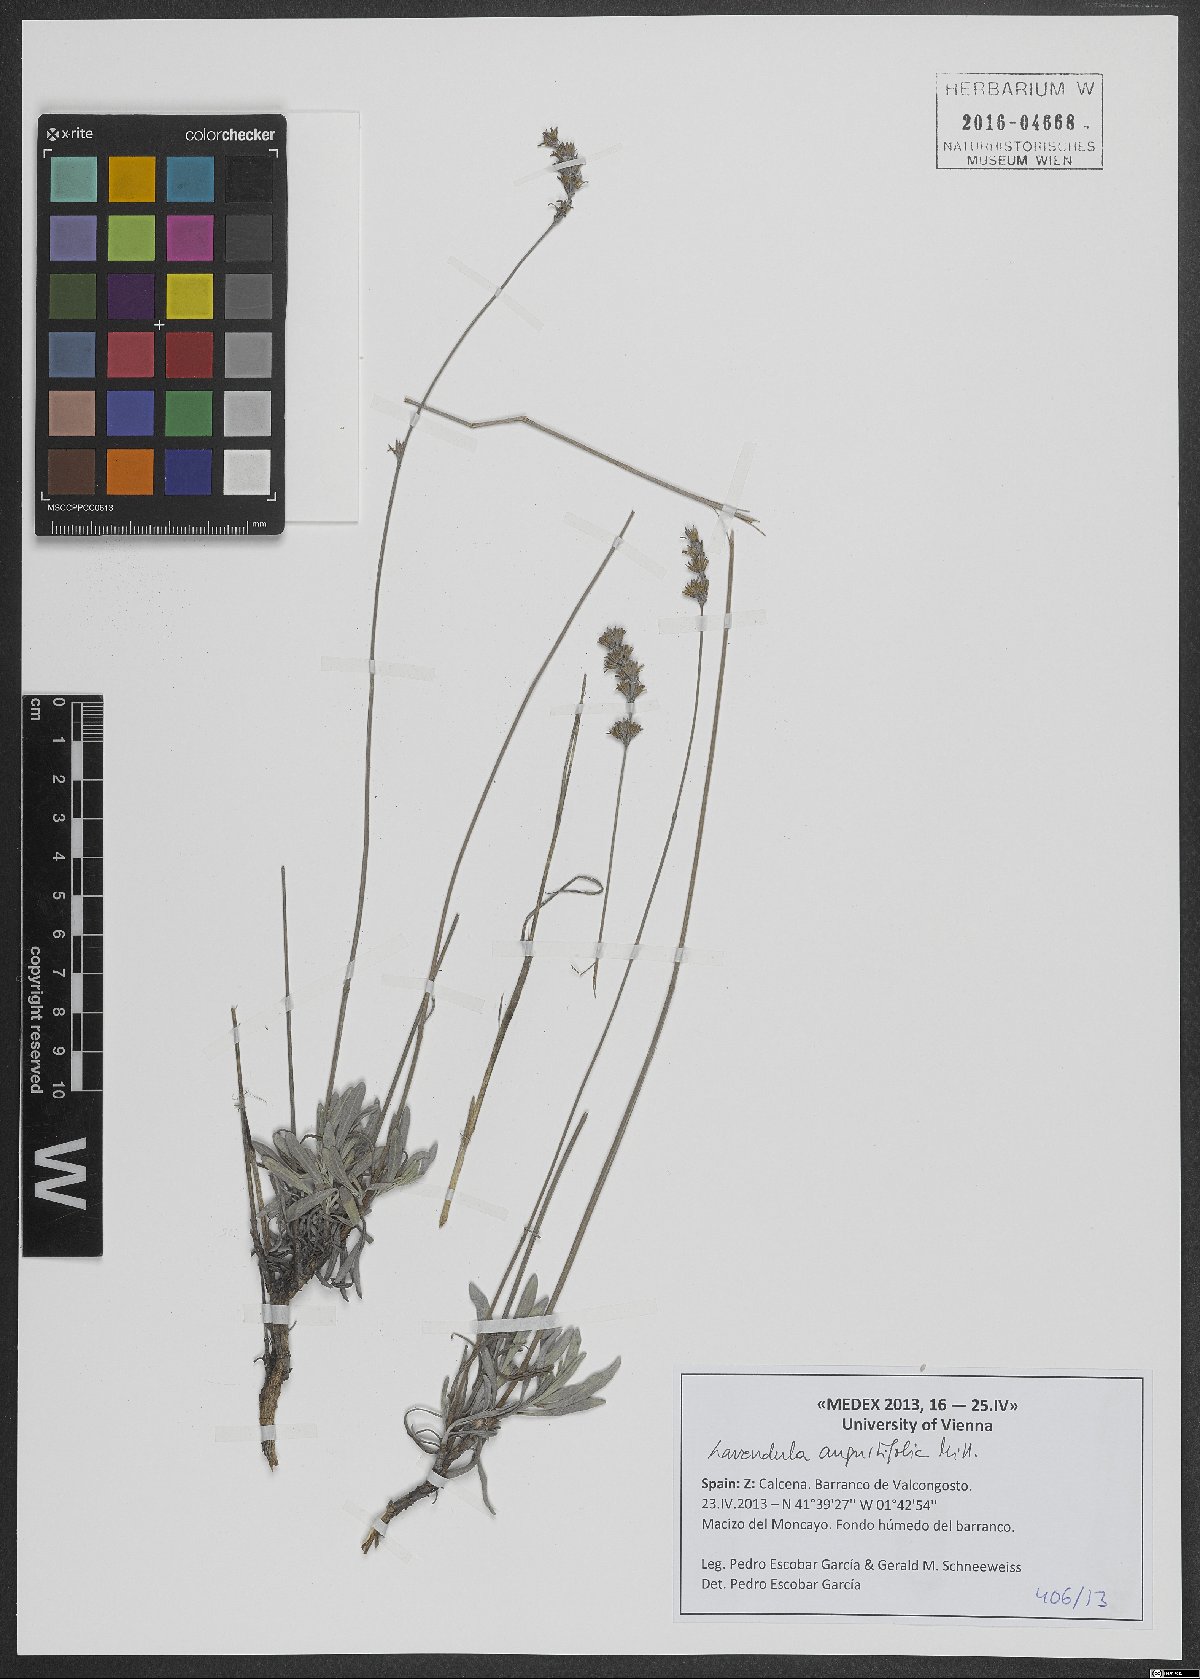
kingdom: Plantae
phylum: Tracheophyta
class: Magnoliopsida
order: Lamiales
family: Lamiaceae
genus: Lavandula
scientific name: Lavandula angustifolia
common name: Garden lavender
